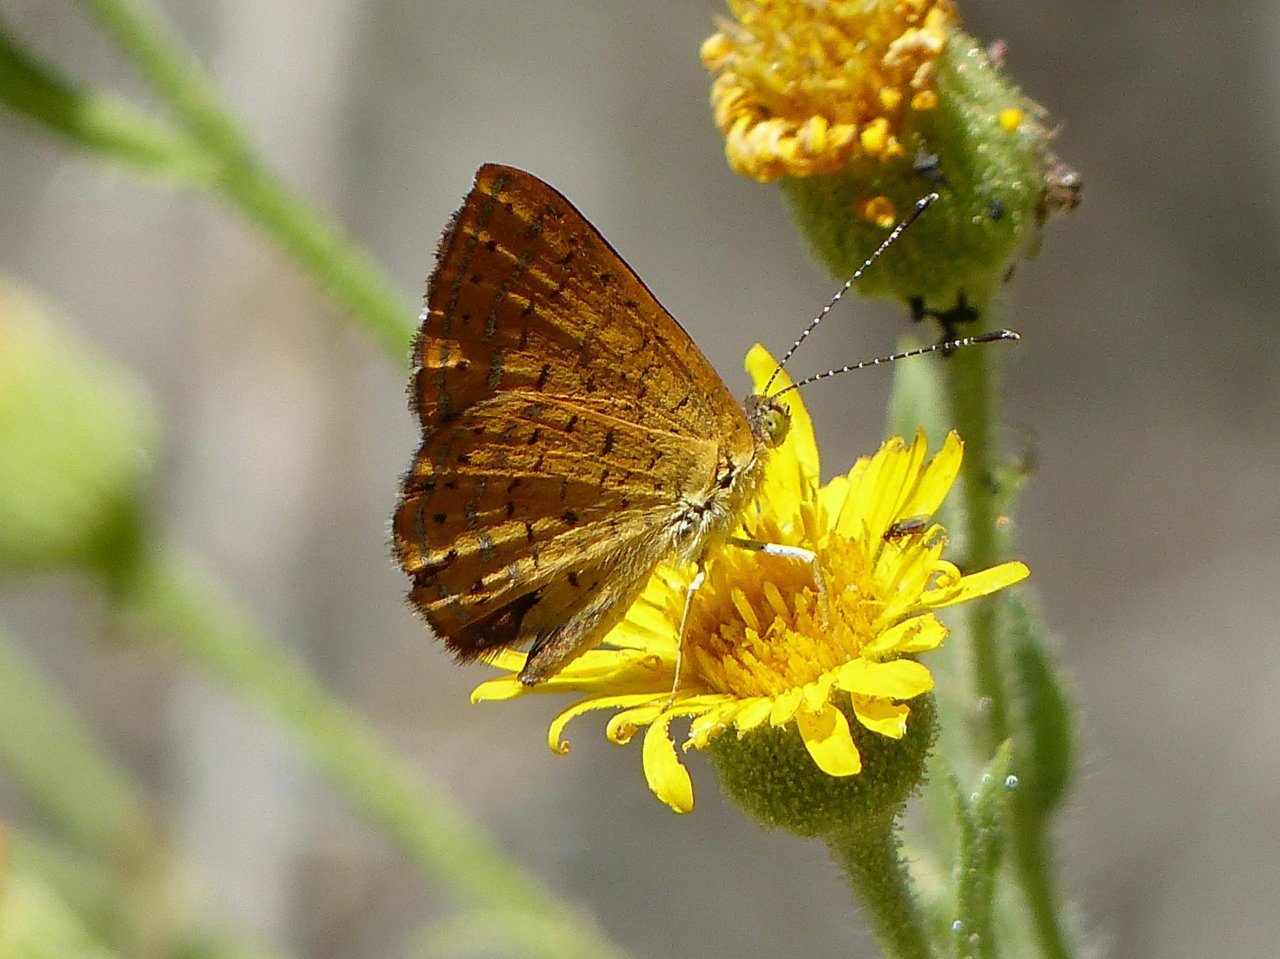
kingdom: Animalia
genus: Calephelis
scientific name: Calephelis arizonensis
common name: Arizona Metalmark
